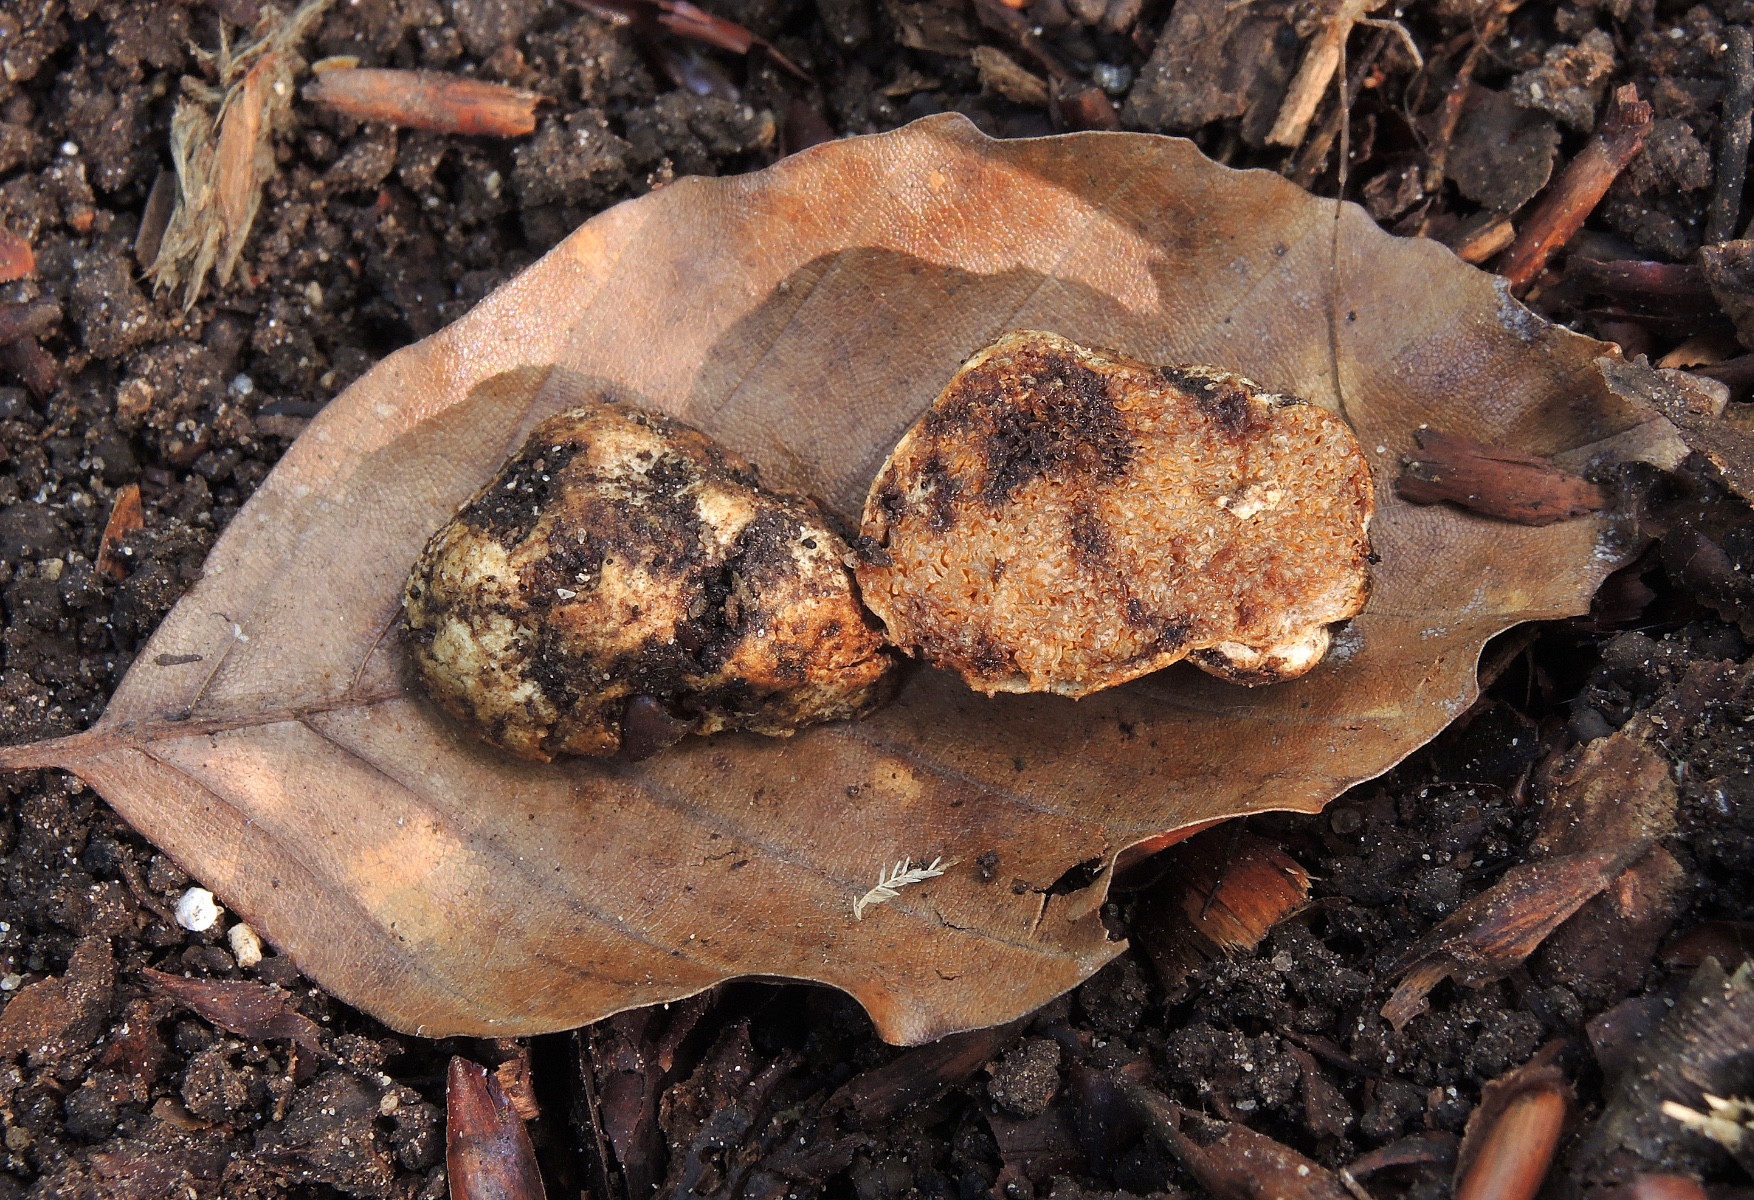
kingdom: Fungi
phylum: Basidiomycota
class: Agaricomycetes
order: Agaricales
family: Hymenogastraceae
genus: Hymenogaster
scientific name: Hymenogaster
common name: knoldtrøffel
